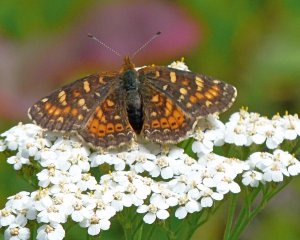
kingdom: Animalia
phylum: Arthropoda
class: Insecta
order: Lepidoptera
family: Nymphalidae
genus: Phyciodes
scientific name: Phyciodes tharos
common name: Field Crescent
